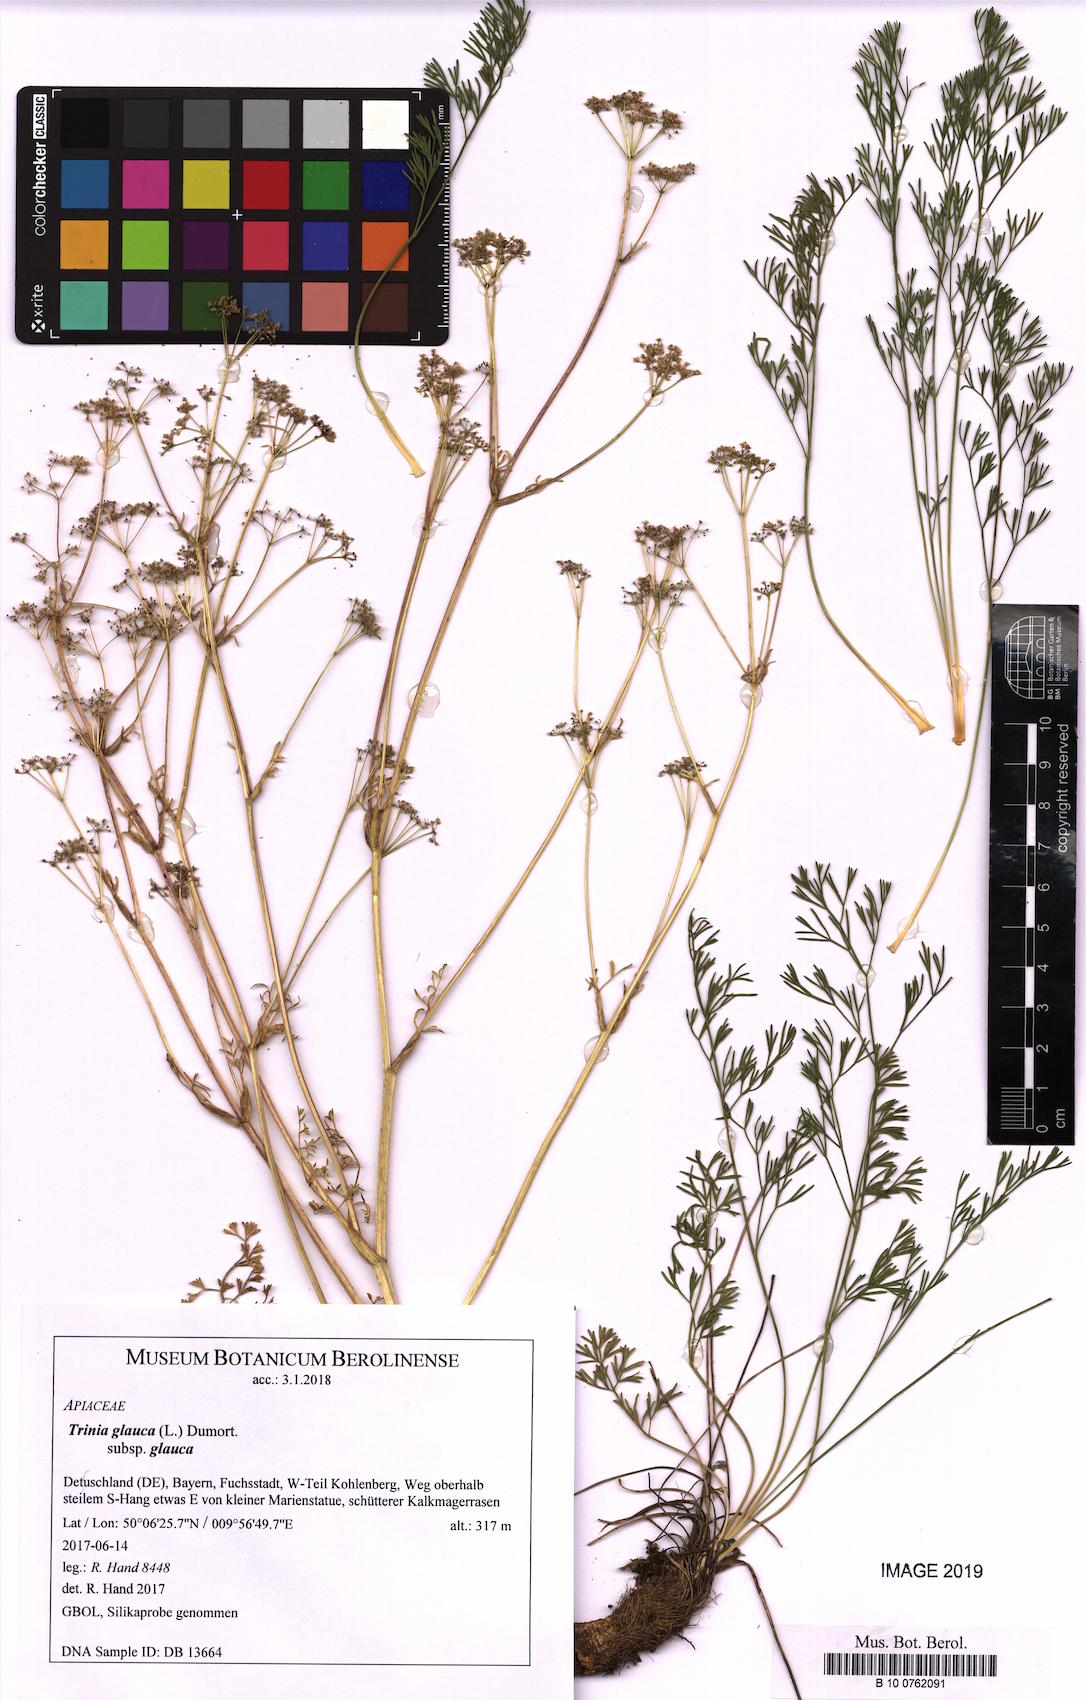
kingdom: Plantae
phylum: Tracheophyta
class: Magnoliopsida
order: Apiales
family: Apiaceae
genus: Trinia
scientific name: Trinia glauca
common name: Honewort
